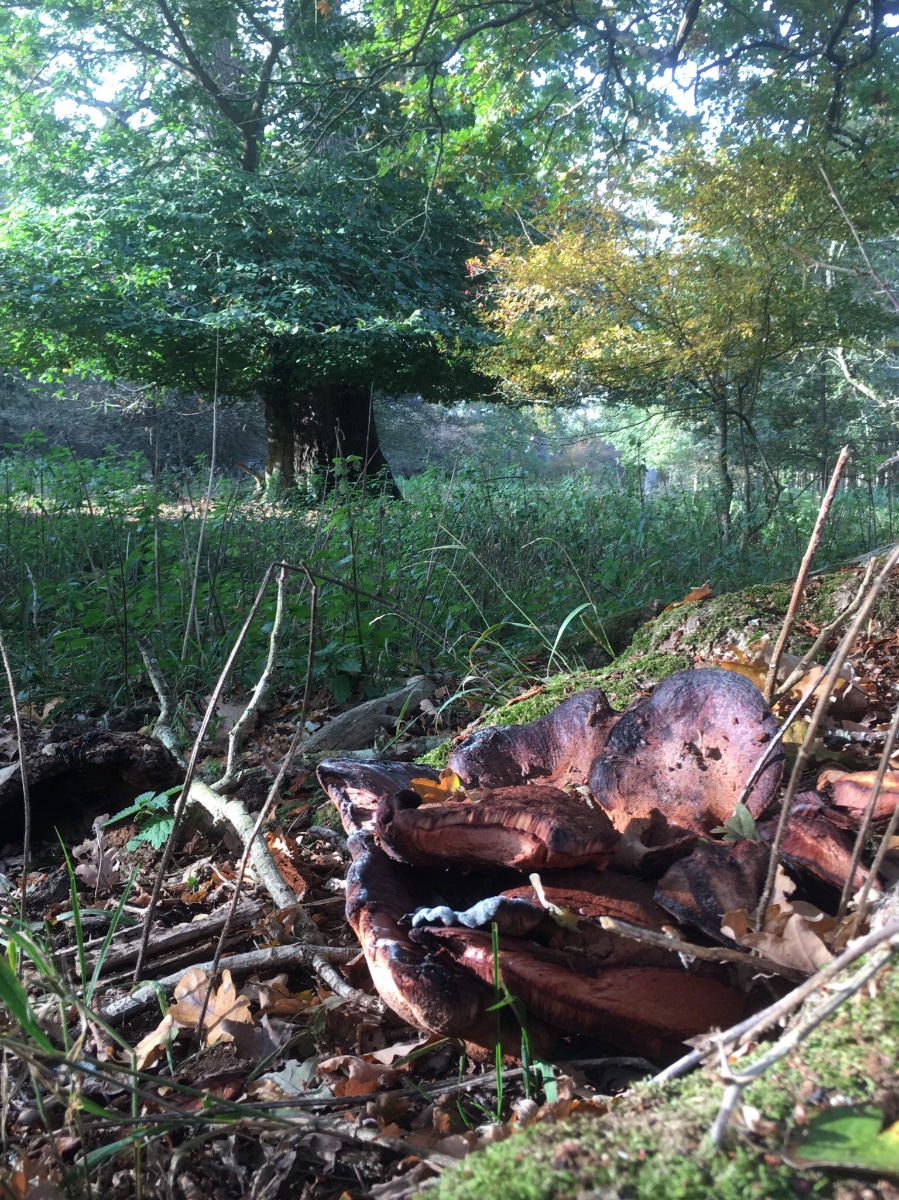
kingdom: Fungi
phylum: Basidiomycota
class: Agaricomycetes
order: Agaricales
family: Fistulinaceae
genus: Fistulina
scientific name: Fistulina hepatica
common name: oksetunge
